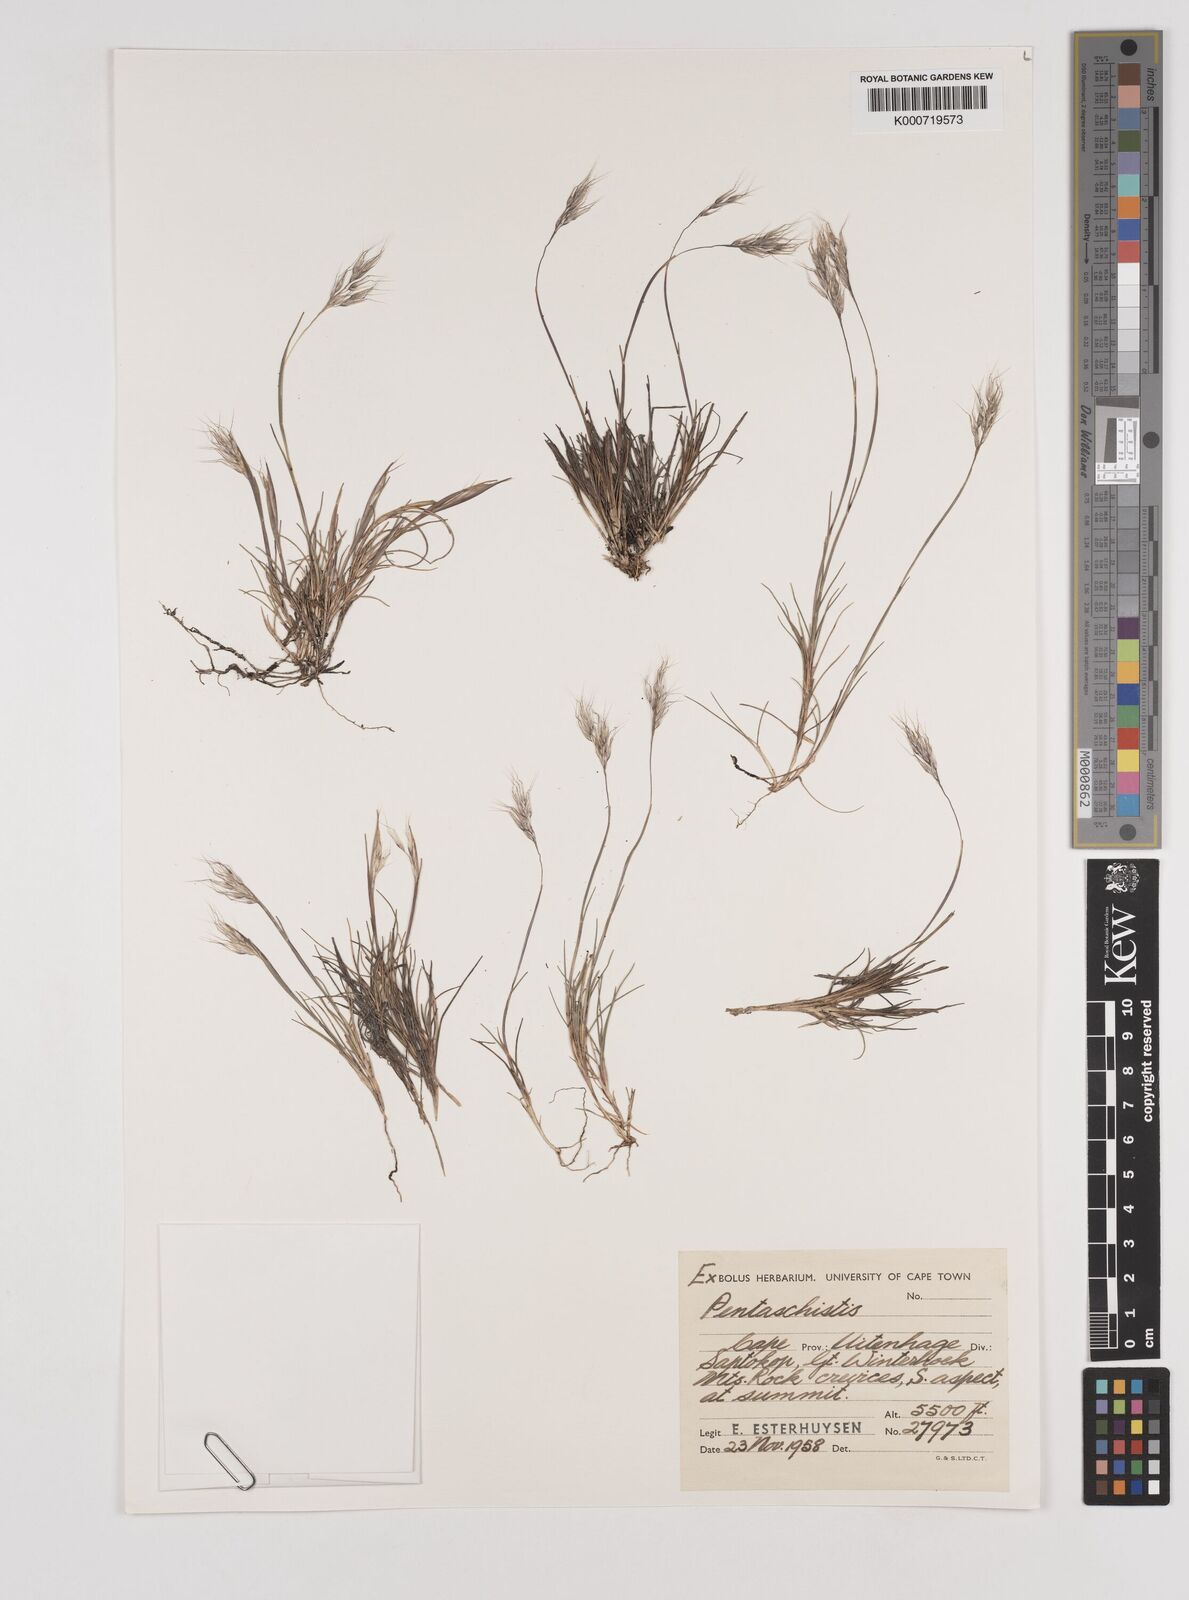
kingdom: Plantae
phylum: Tracheophyta
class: Liliopsida
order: Poales
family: Poaceae
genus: Pentameris
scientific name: Pentameris rigidissima
